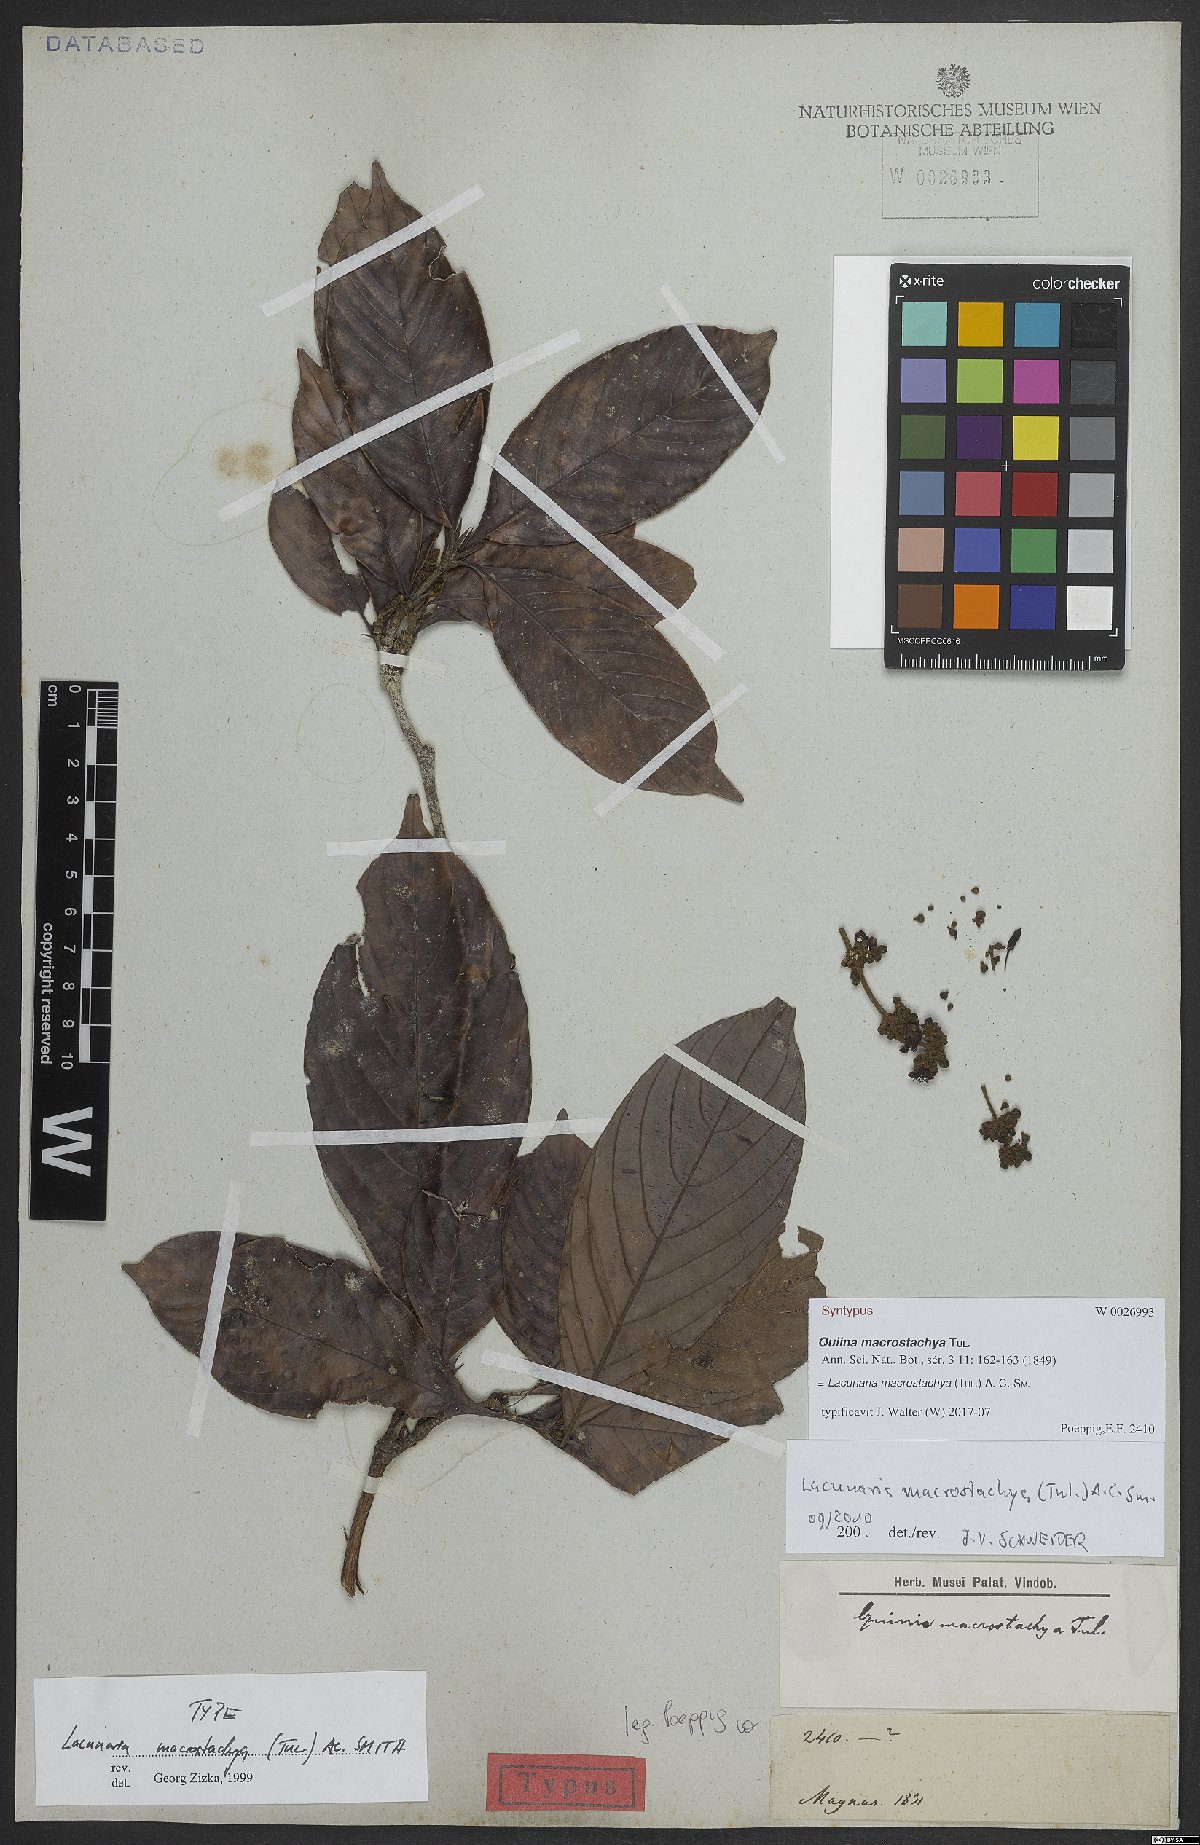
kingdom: Plantae
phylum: Tracheophyta
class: Magnoliopsida
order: Malpighiales
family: Quiinaceae
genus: Lacunaria
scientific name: Lacunaria macrostachya
